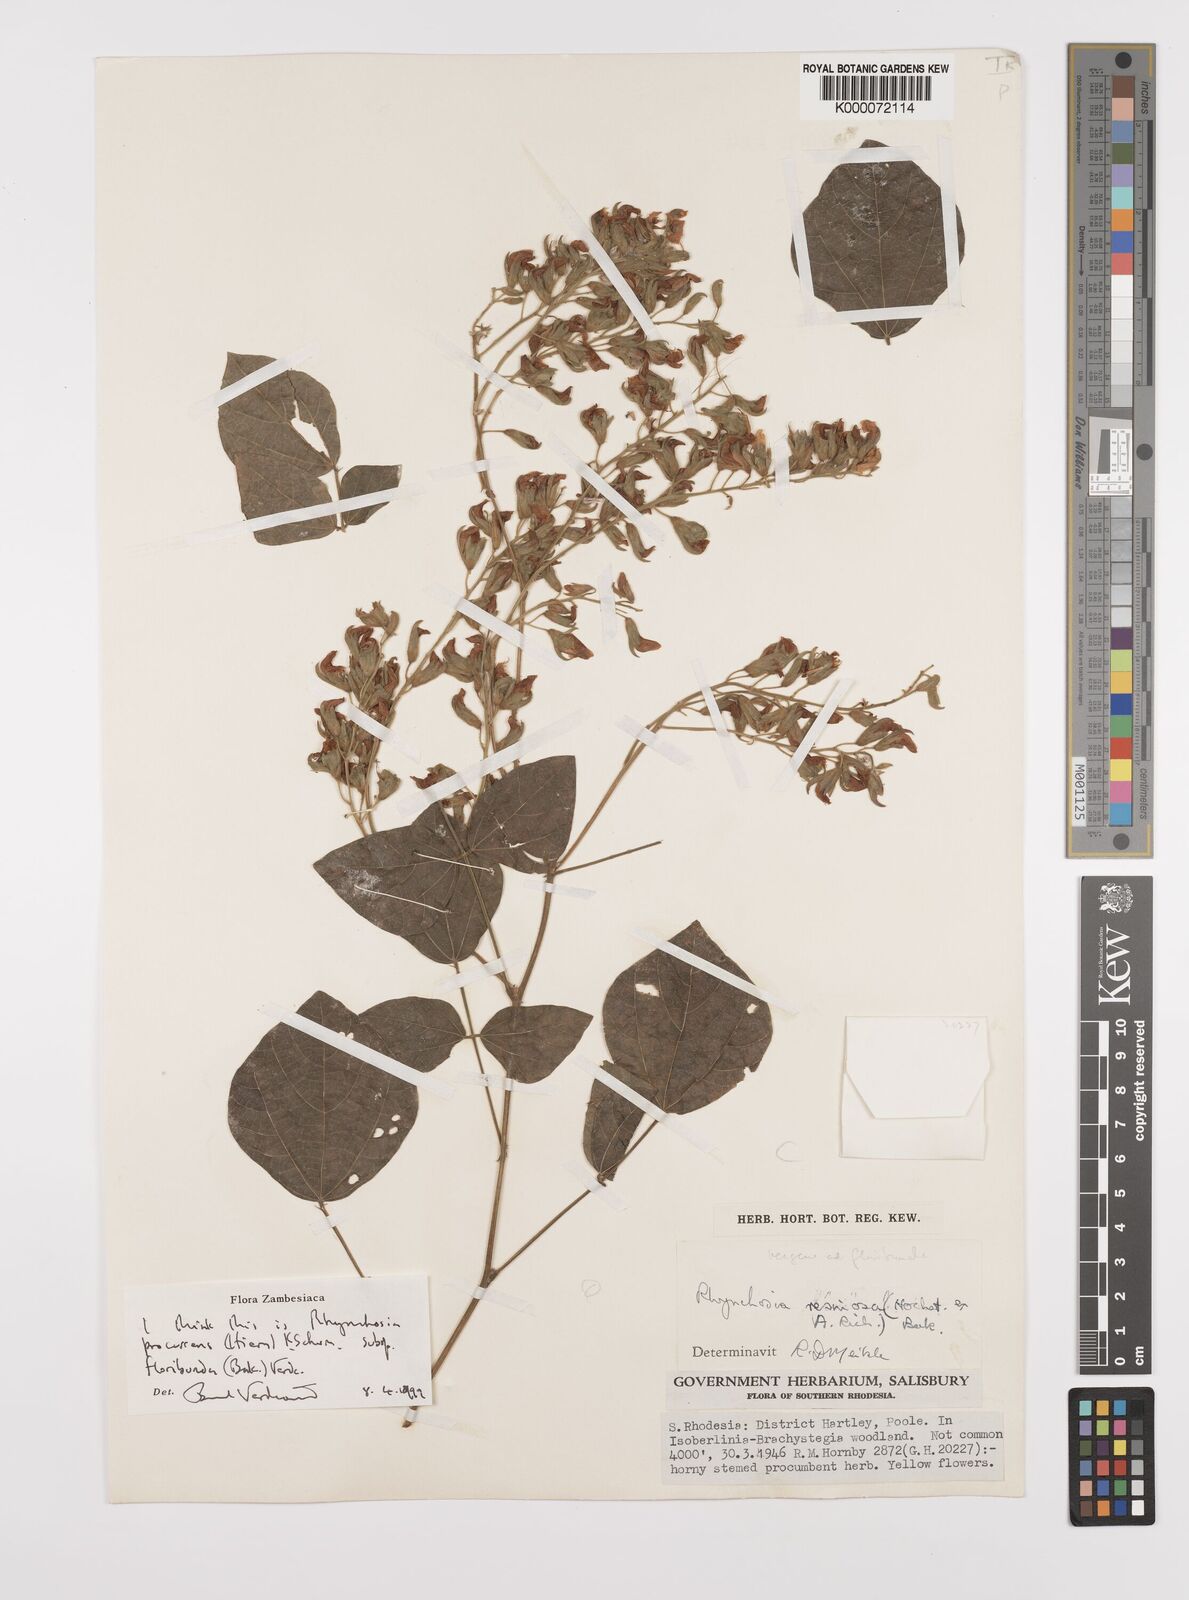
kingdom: Plantae
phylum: Tracheophyta
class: Magnoliopsida
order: Fabales
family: Fabaceae
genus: Rhynchosia
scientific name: Rhynchosia procurrens
